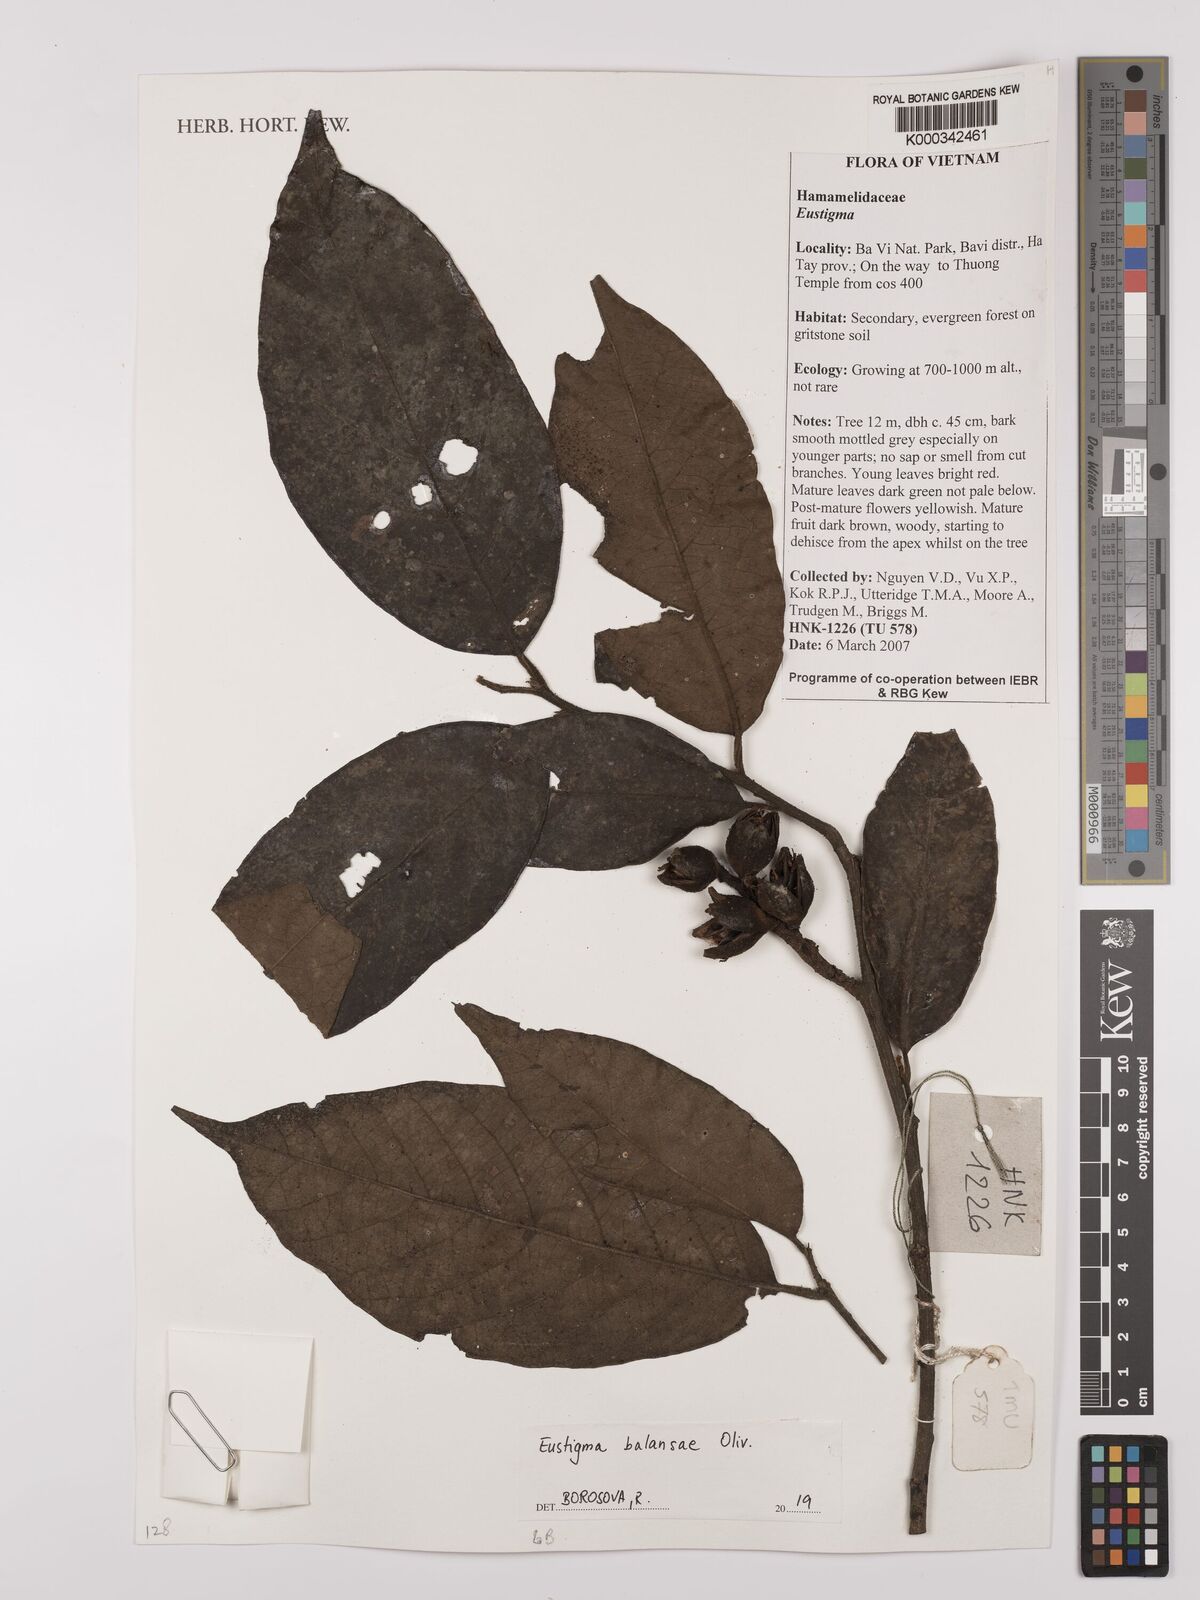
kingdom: Plantae
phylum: Tracheophyta
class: Magnoliopsida
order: Saxifragales
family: Hamamelidaceae
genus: Eustigma
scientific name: Eustigma balansae
